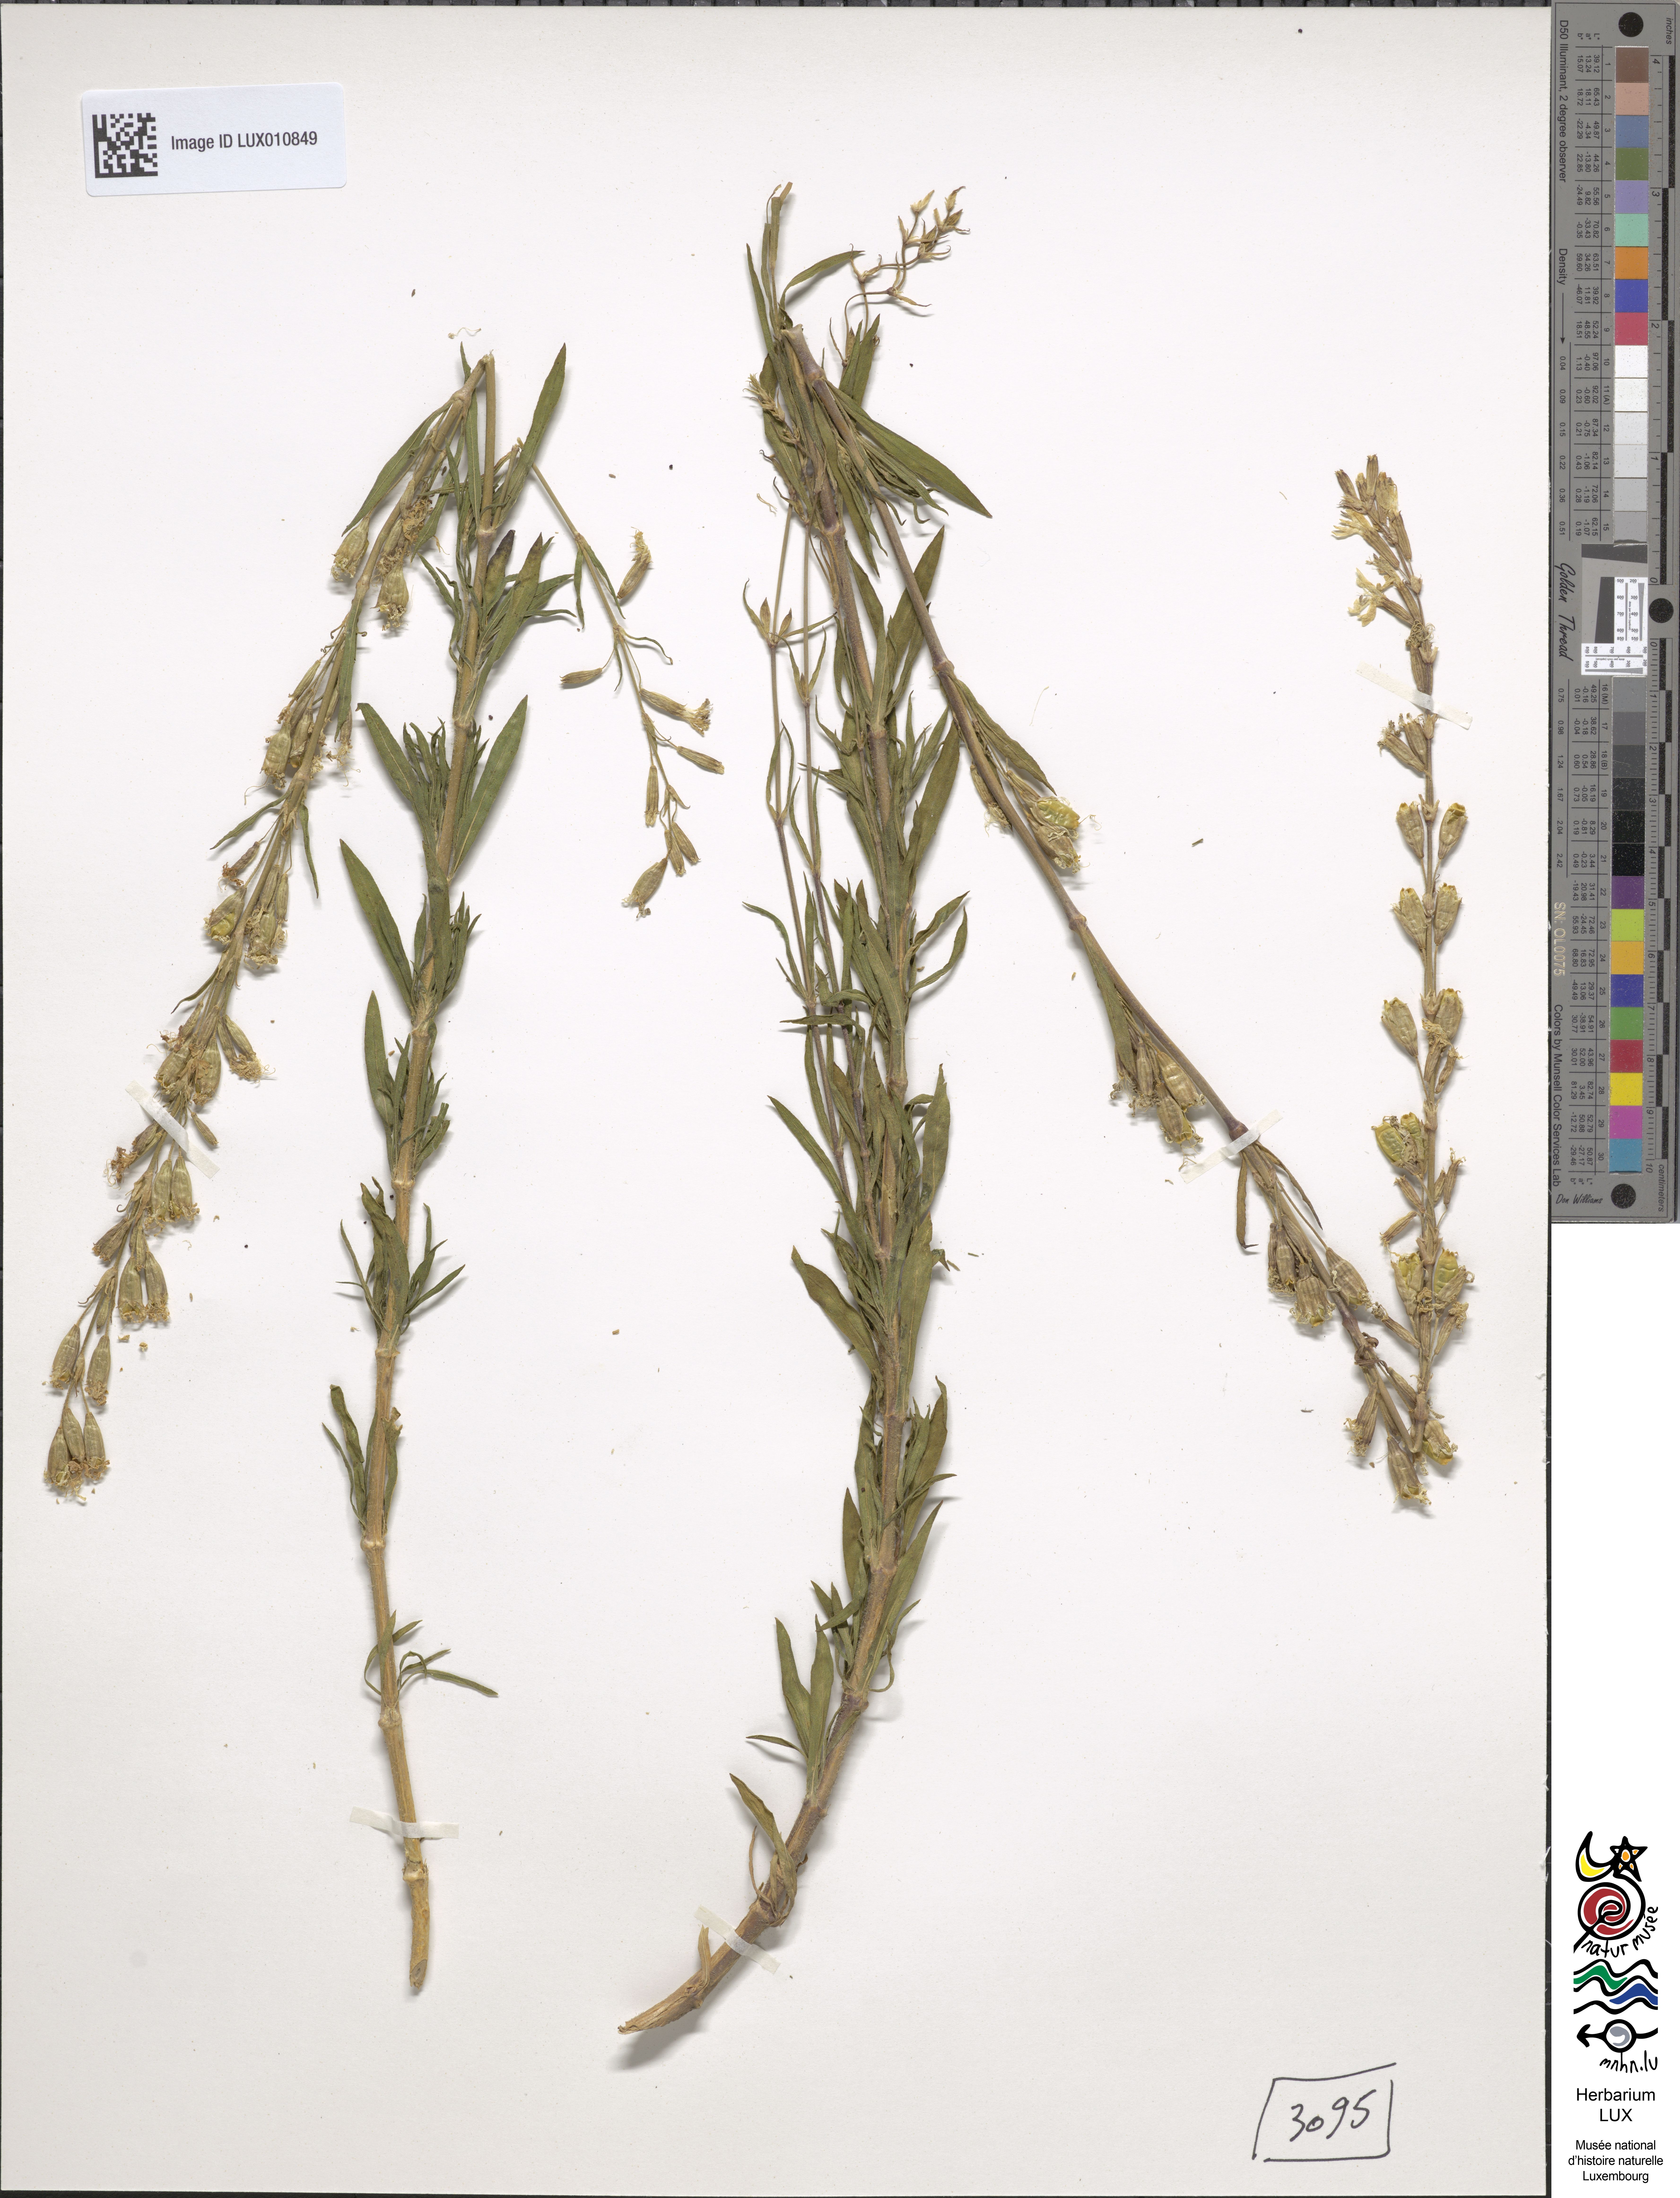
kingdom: Plantae
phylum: Tracheophyta
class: Magnoliopsida
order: Caryophyllales
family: Caryophyllaceae
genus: Silene
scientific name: Silene tatarica
